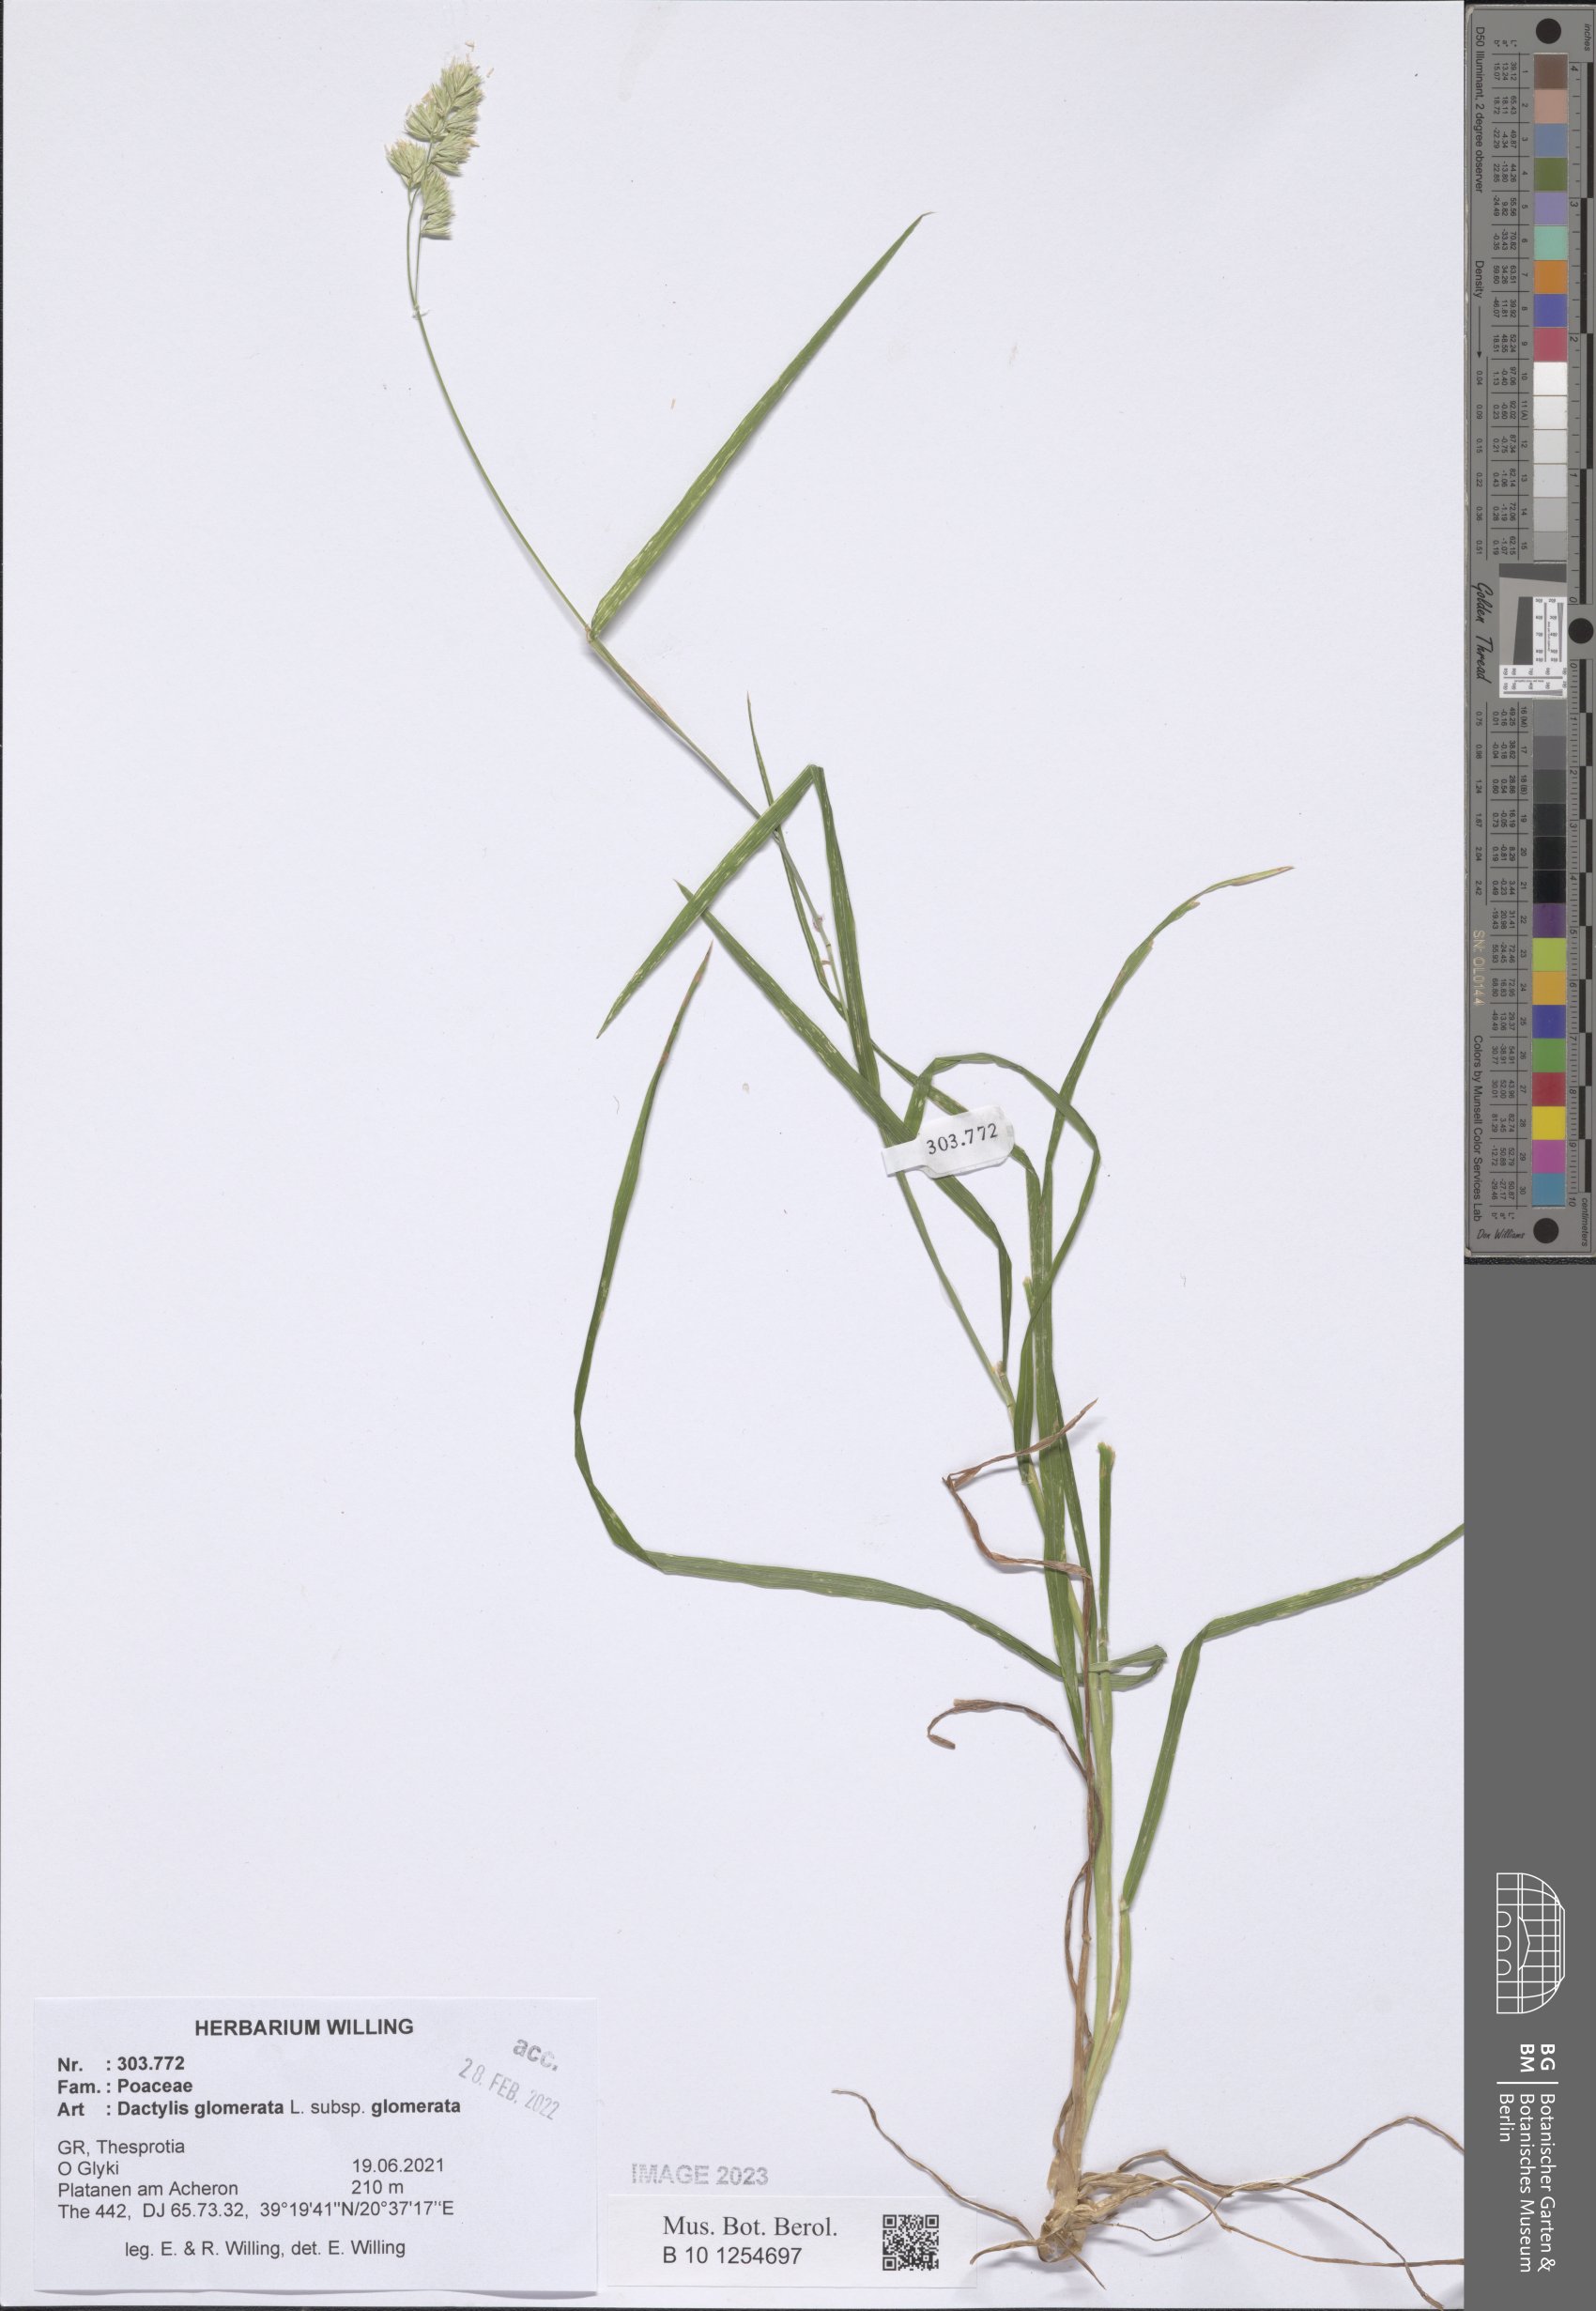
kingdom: Plantae
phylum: Tracheophyta
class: Liliopsida
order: Poales
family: Poaceae
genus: Dactylis
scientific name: Dactylis glomerata
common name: Orchardgrass
